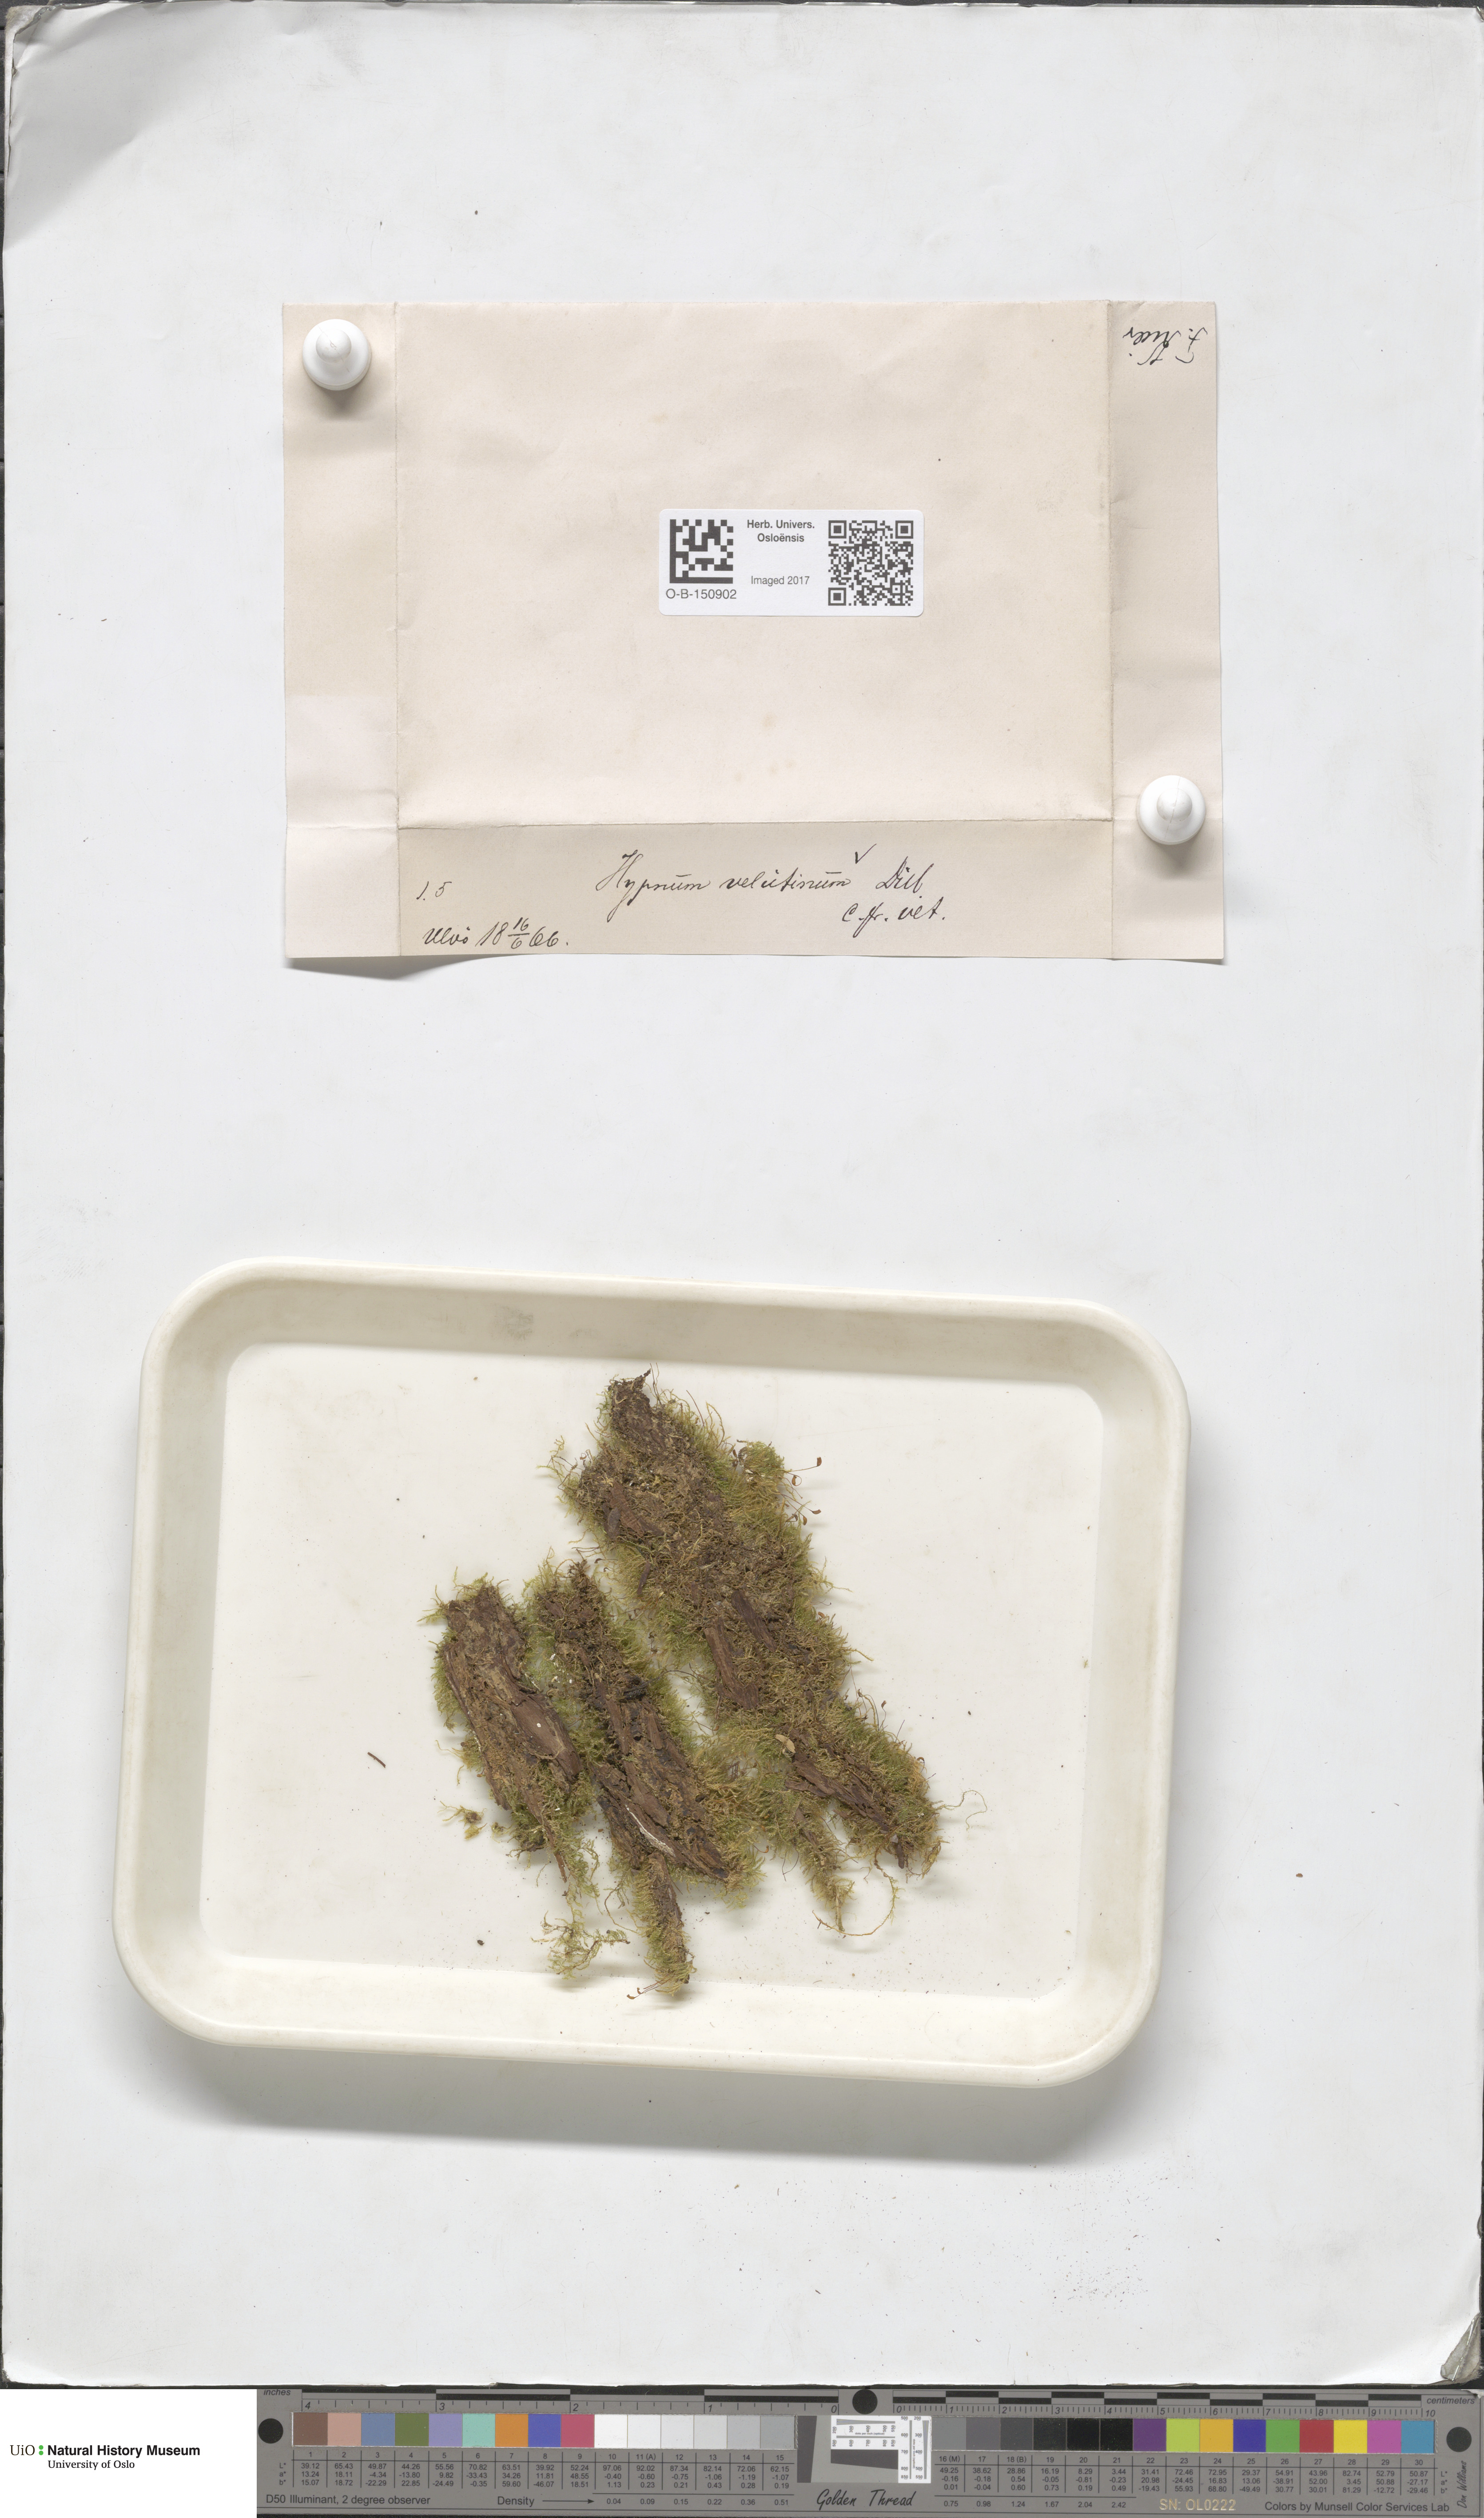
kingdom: Plantae
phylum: Bryophyta
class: Bryopsida
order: Hypnales
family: Brachytheciaceae
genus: Brachytheciastrum
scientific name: Brachytheciastrum velutinum
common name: Velvet feather-moss
